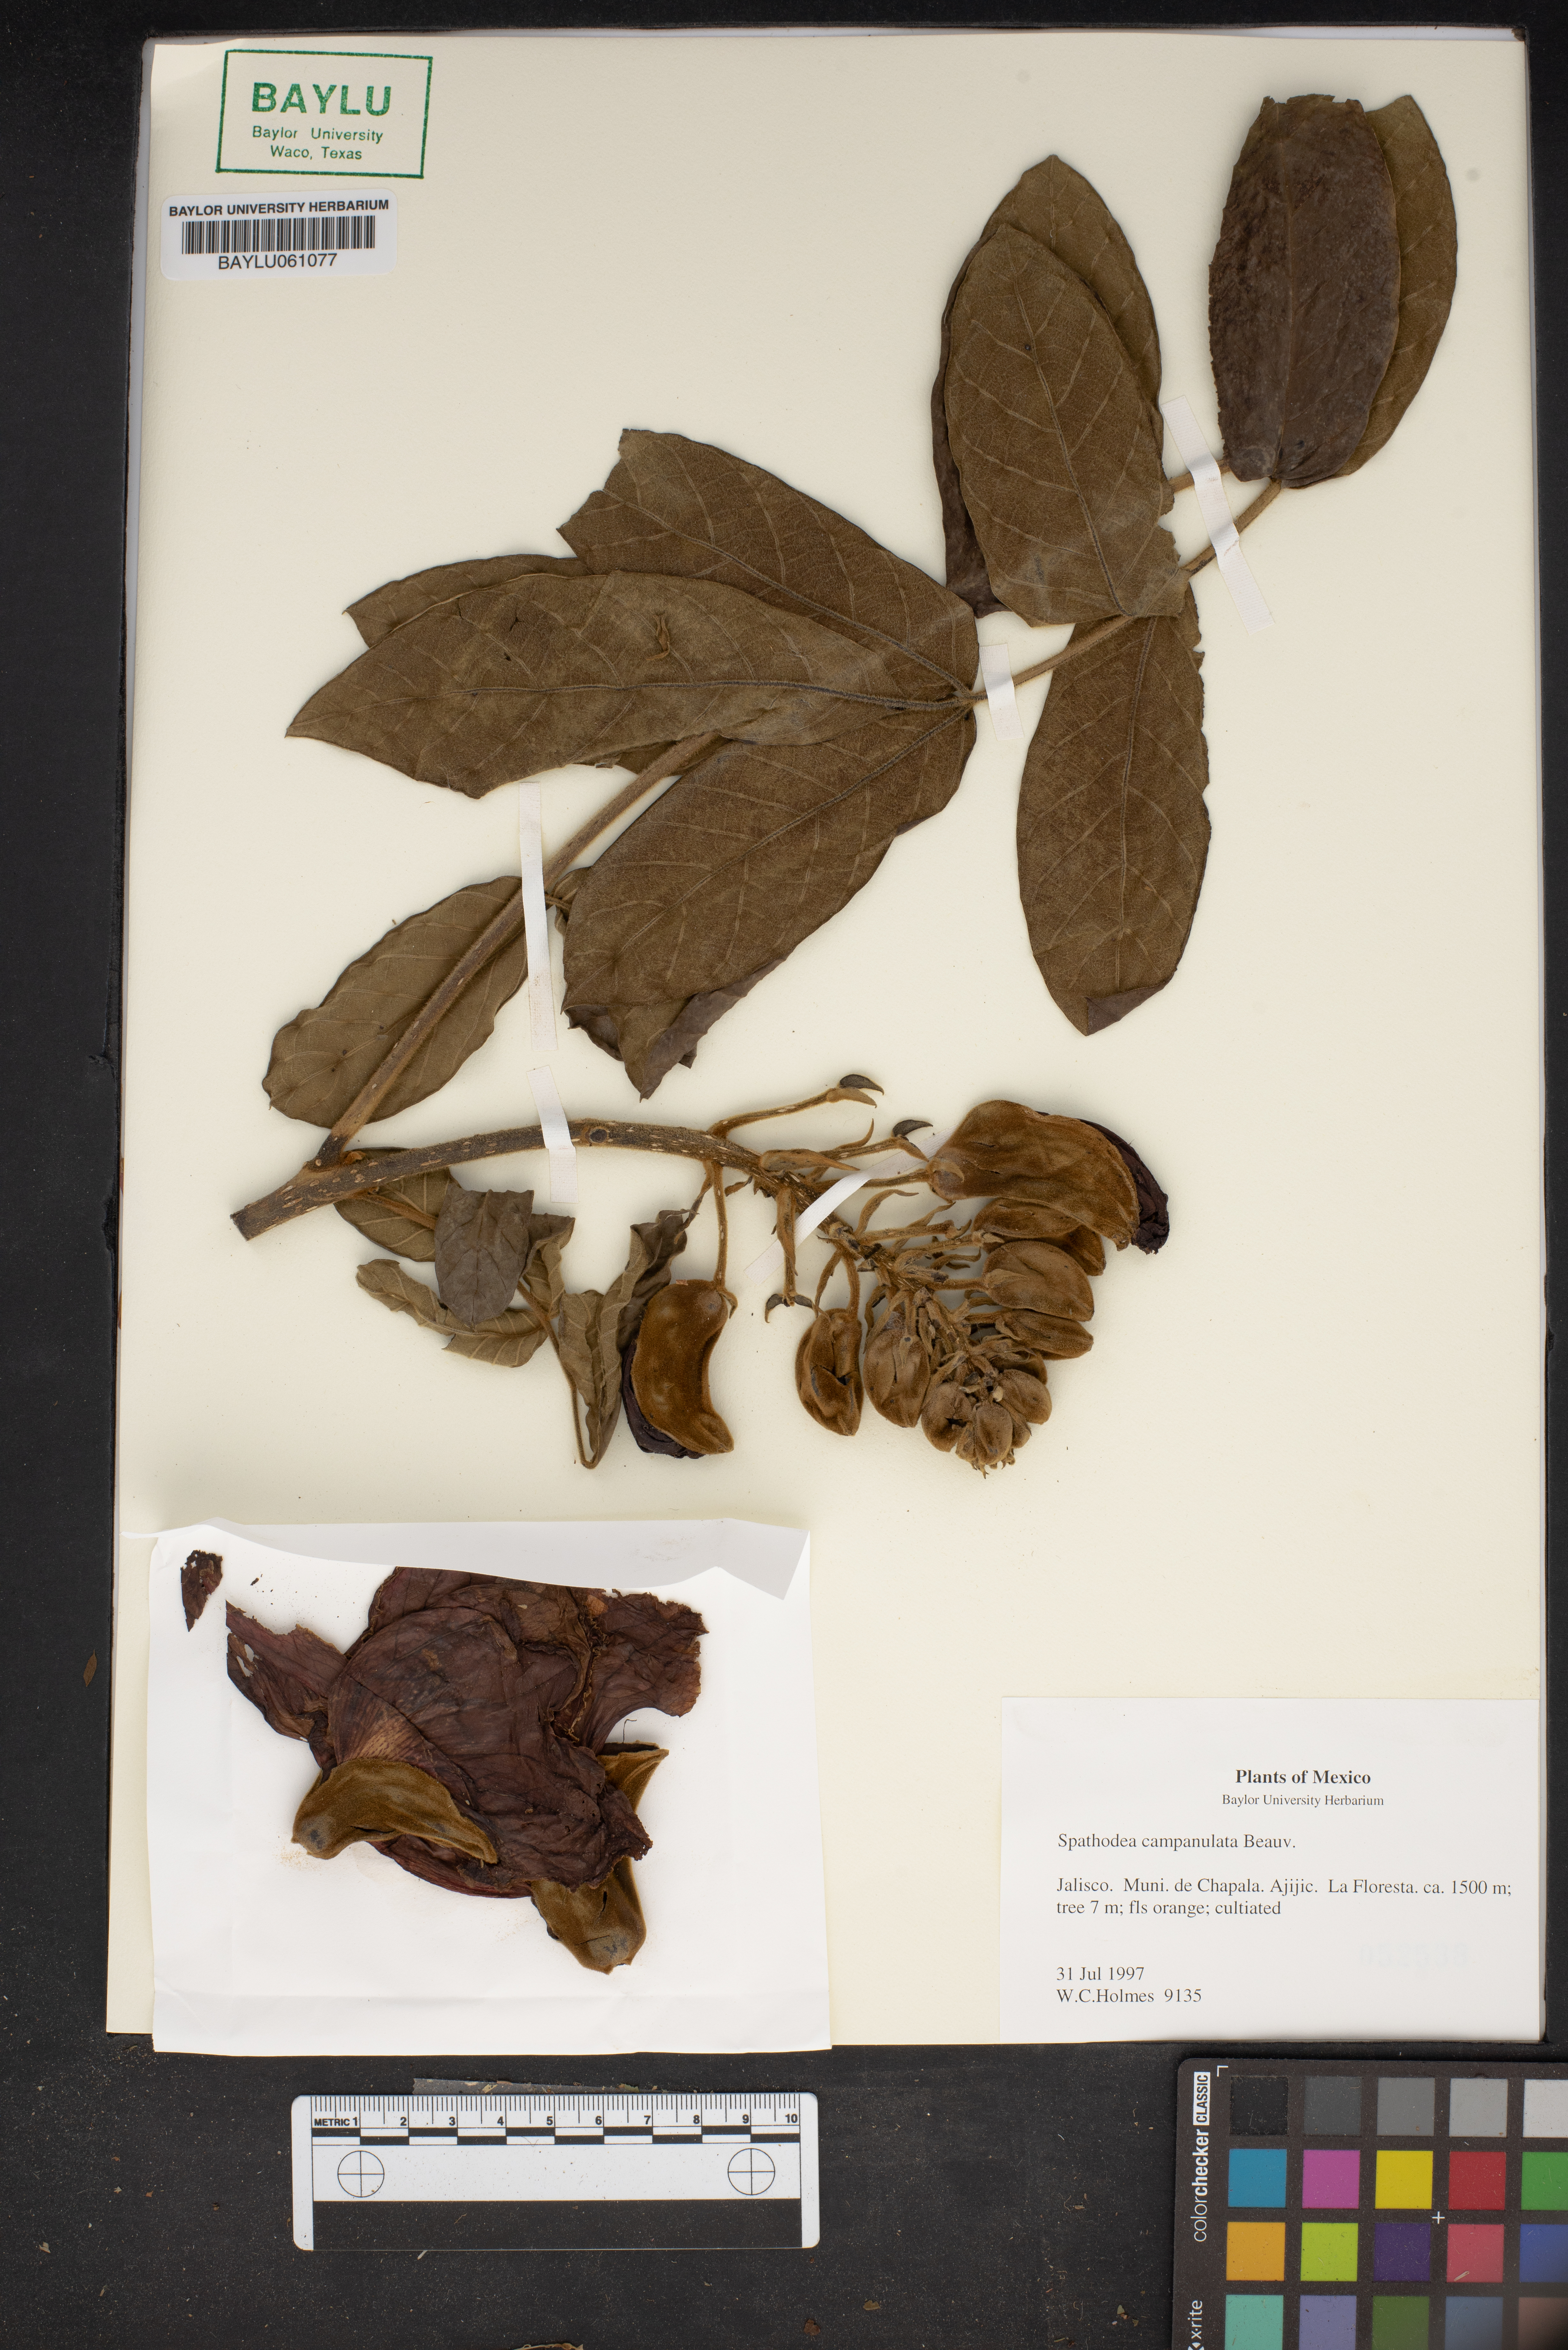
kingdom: Plantae
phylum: Tracheophyta
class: Magnoliopsida
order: Lamiales
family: Bignoniaceae
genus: Spathodea
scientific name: Spathodea campanulata
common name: African tuliptree
